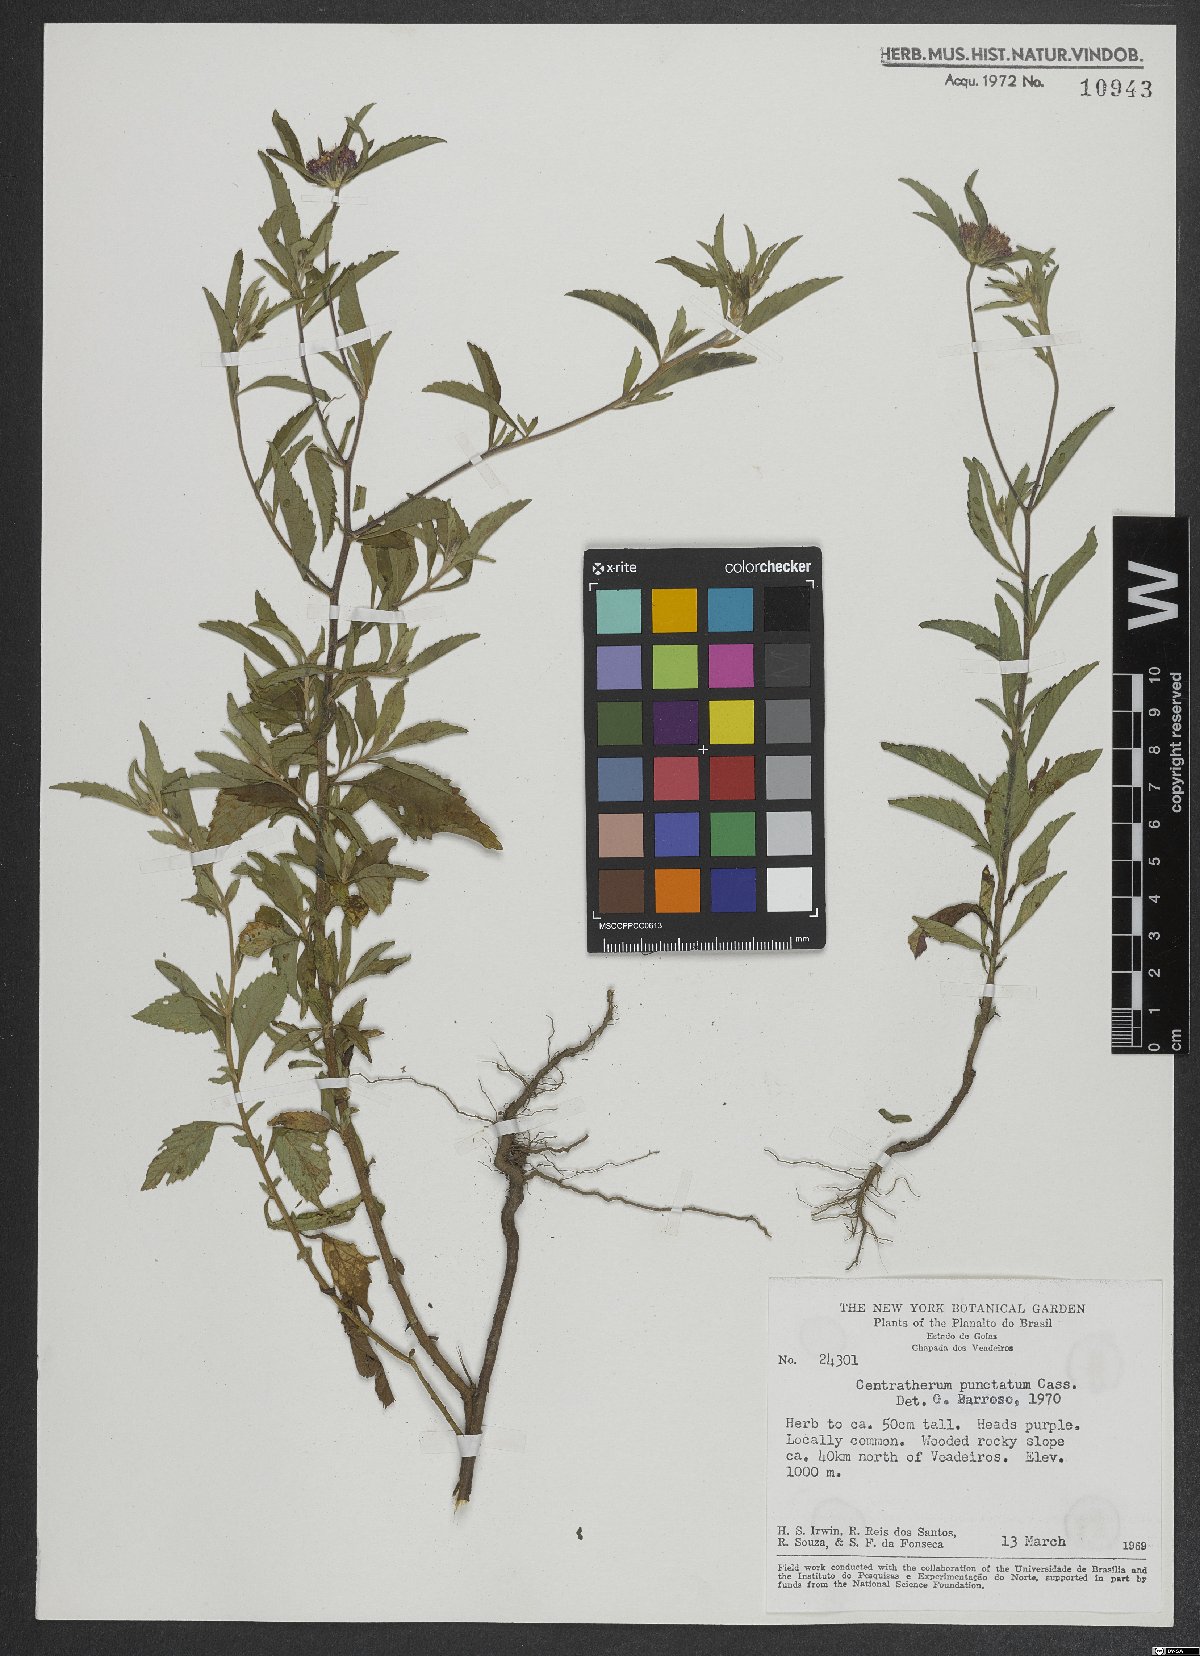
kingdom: Plantae
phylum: Tracheophyta
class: Magnoliopsida
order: Asterales
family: Asteraceae
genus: Centratherum
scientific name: Centratherum punctatum
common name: Larkdaisy
